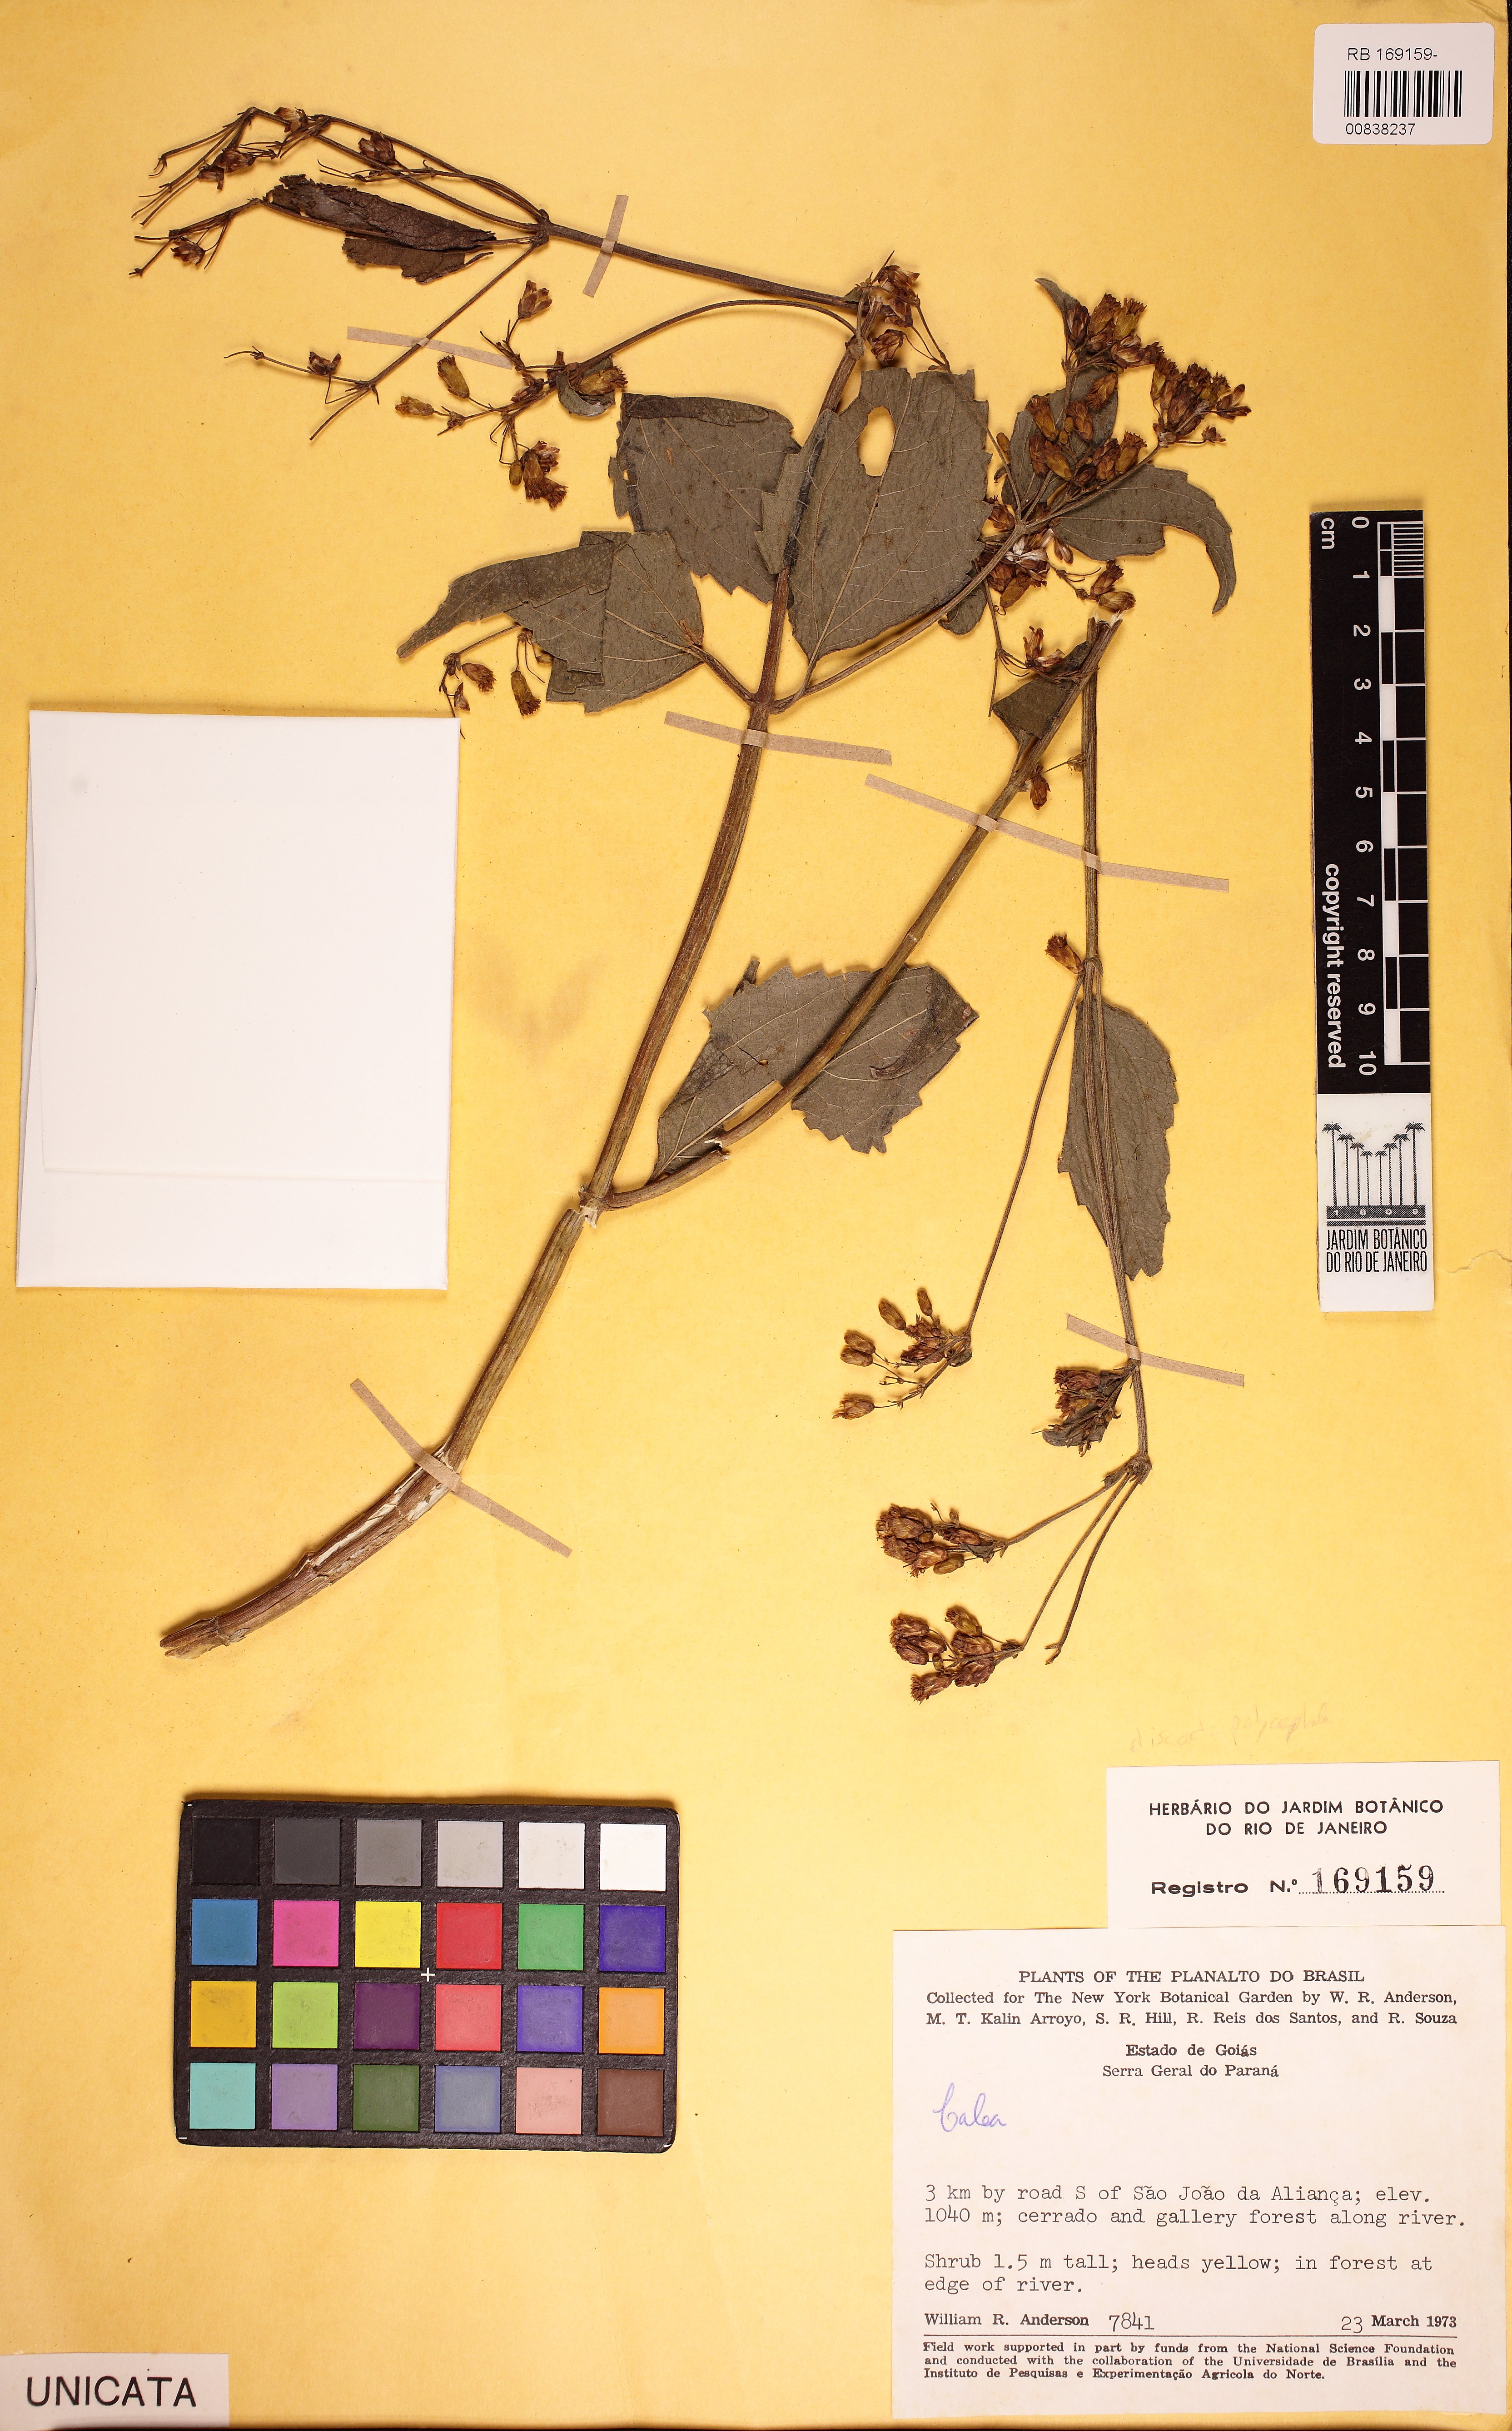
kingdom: Plantae
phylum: Tracheophyta
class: Magnoliopsida
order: Asterales
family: Asteraceae
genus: Calea
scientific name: Calea pinnatifida
